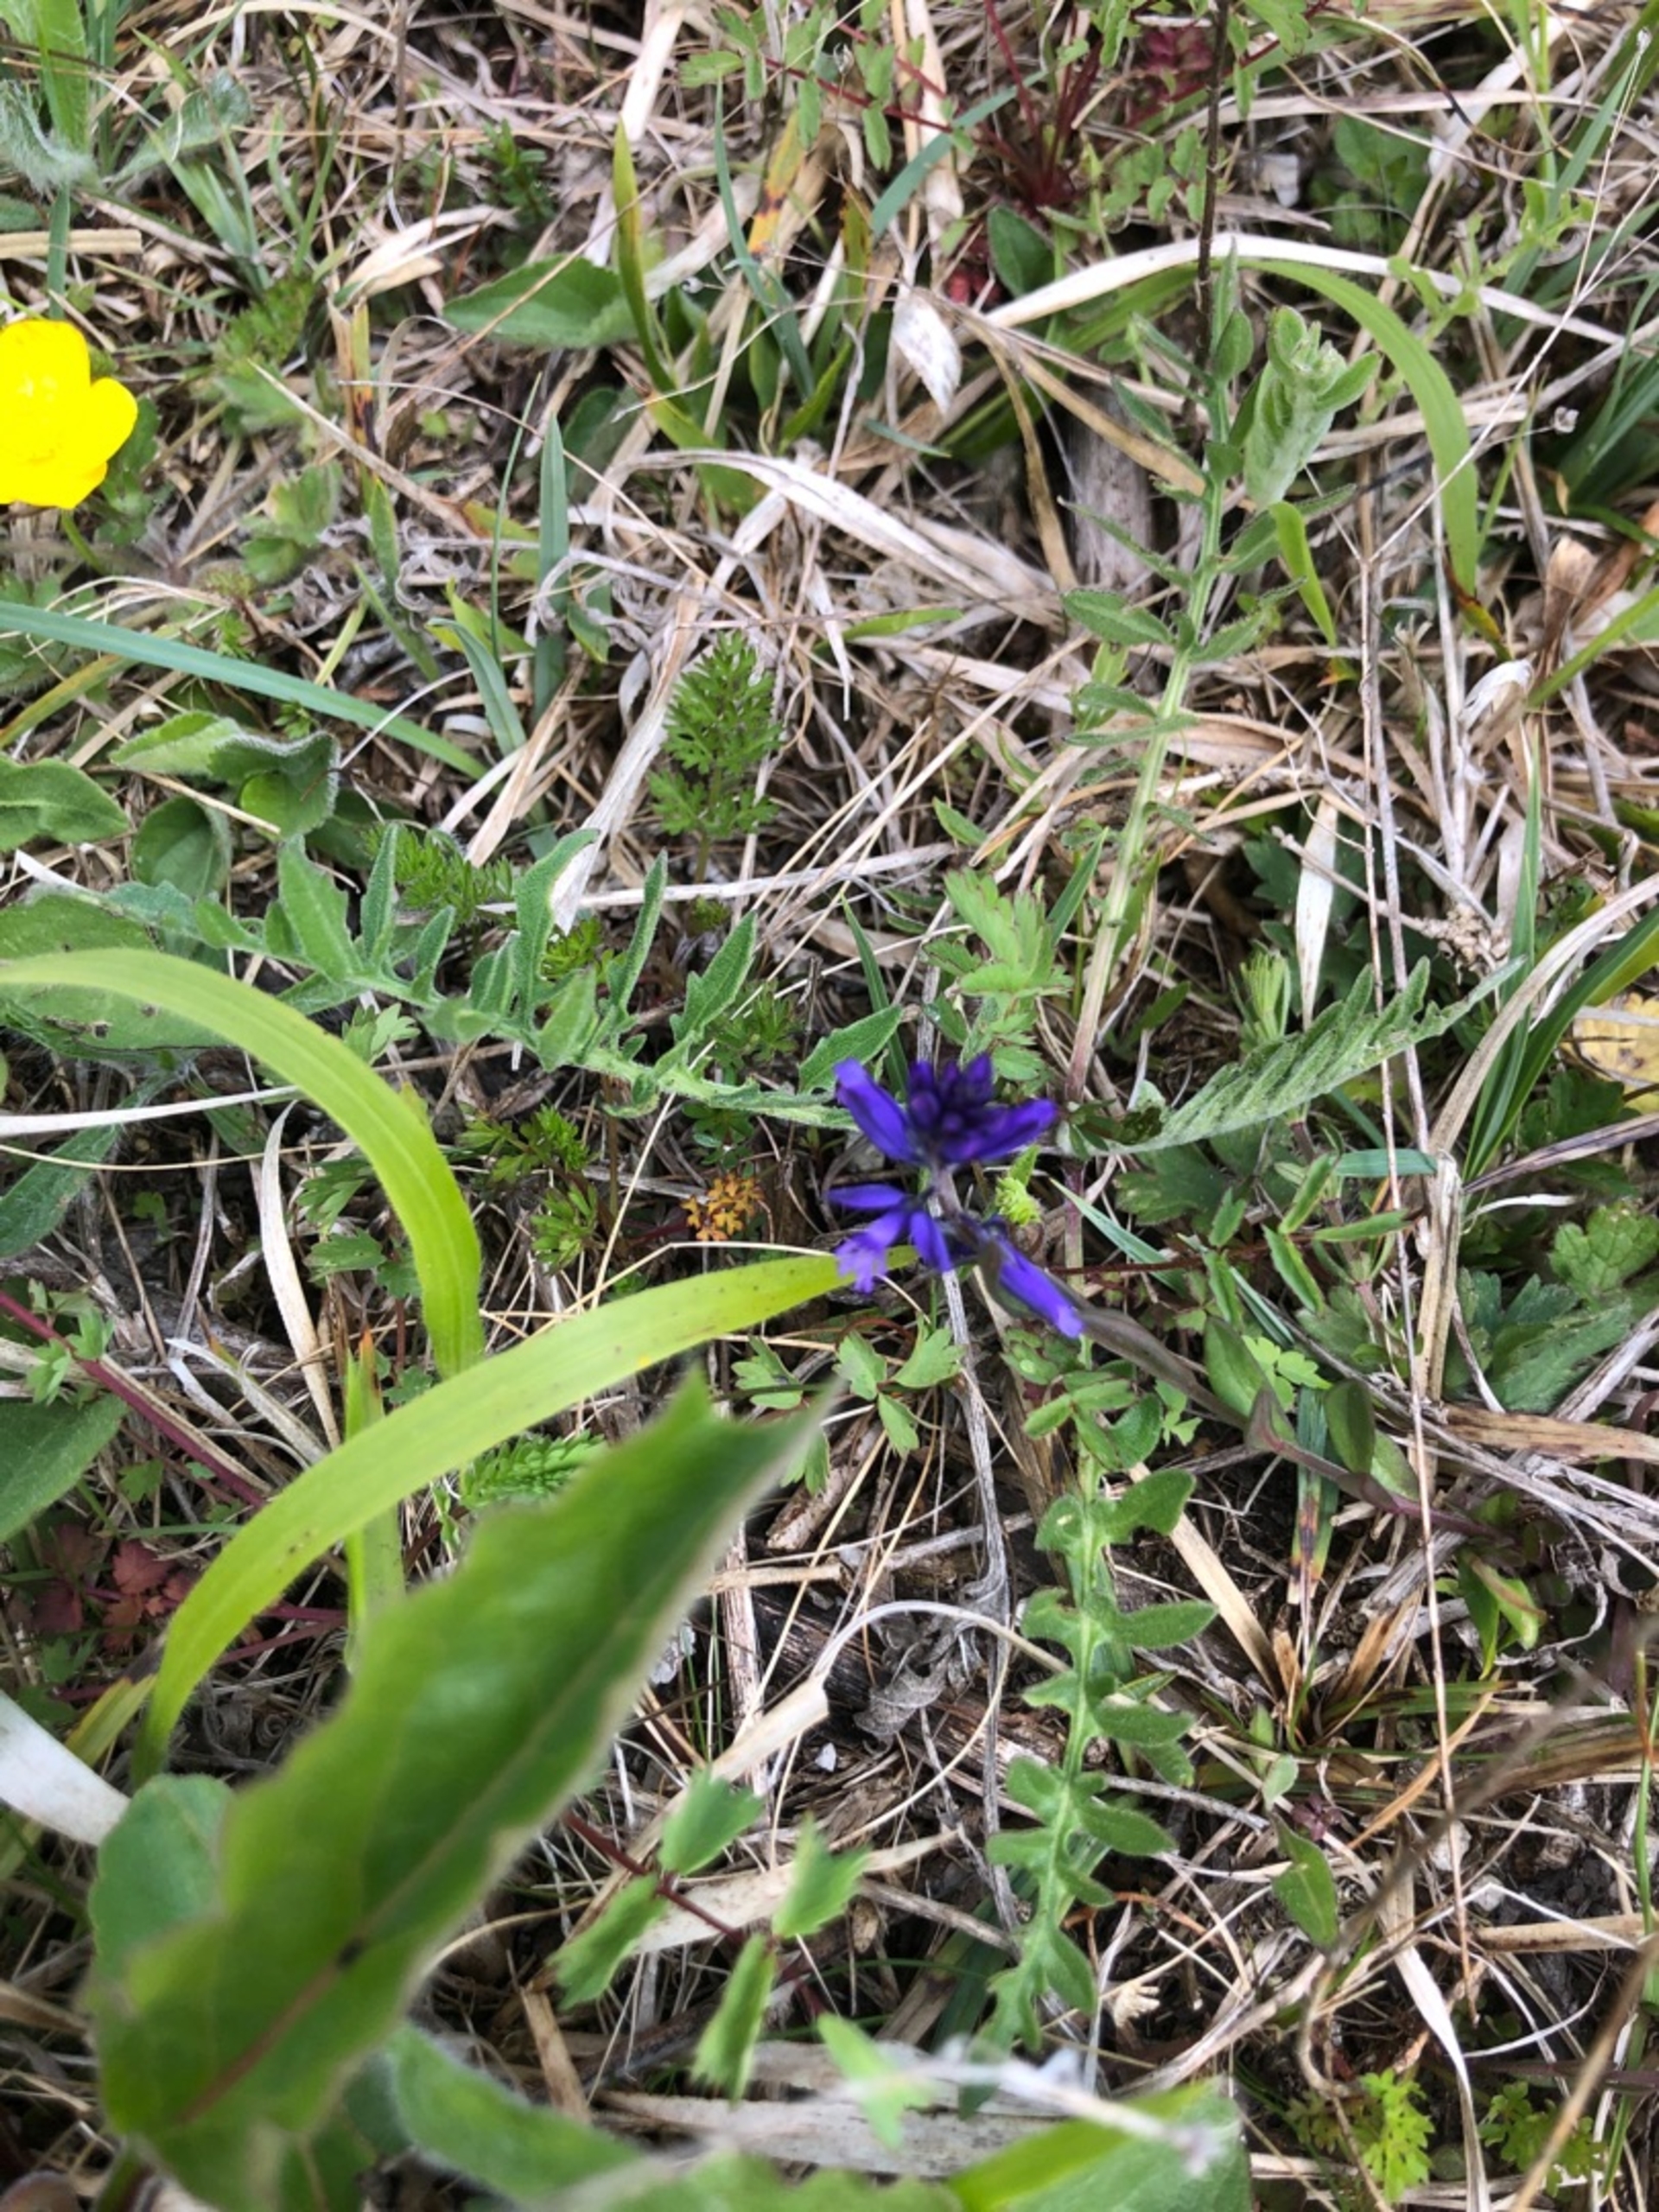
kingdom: Plantae
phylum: Tracheophyta
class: Magnoliopsida
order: Fabales
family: Polygalaceae
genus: Polygala
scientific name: Polygala vulgaris
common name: Almindelig mælkeurt
